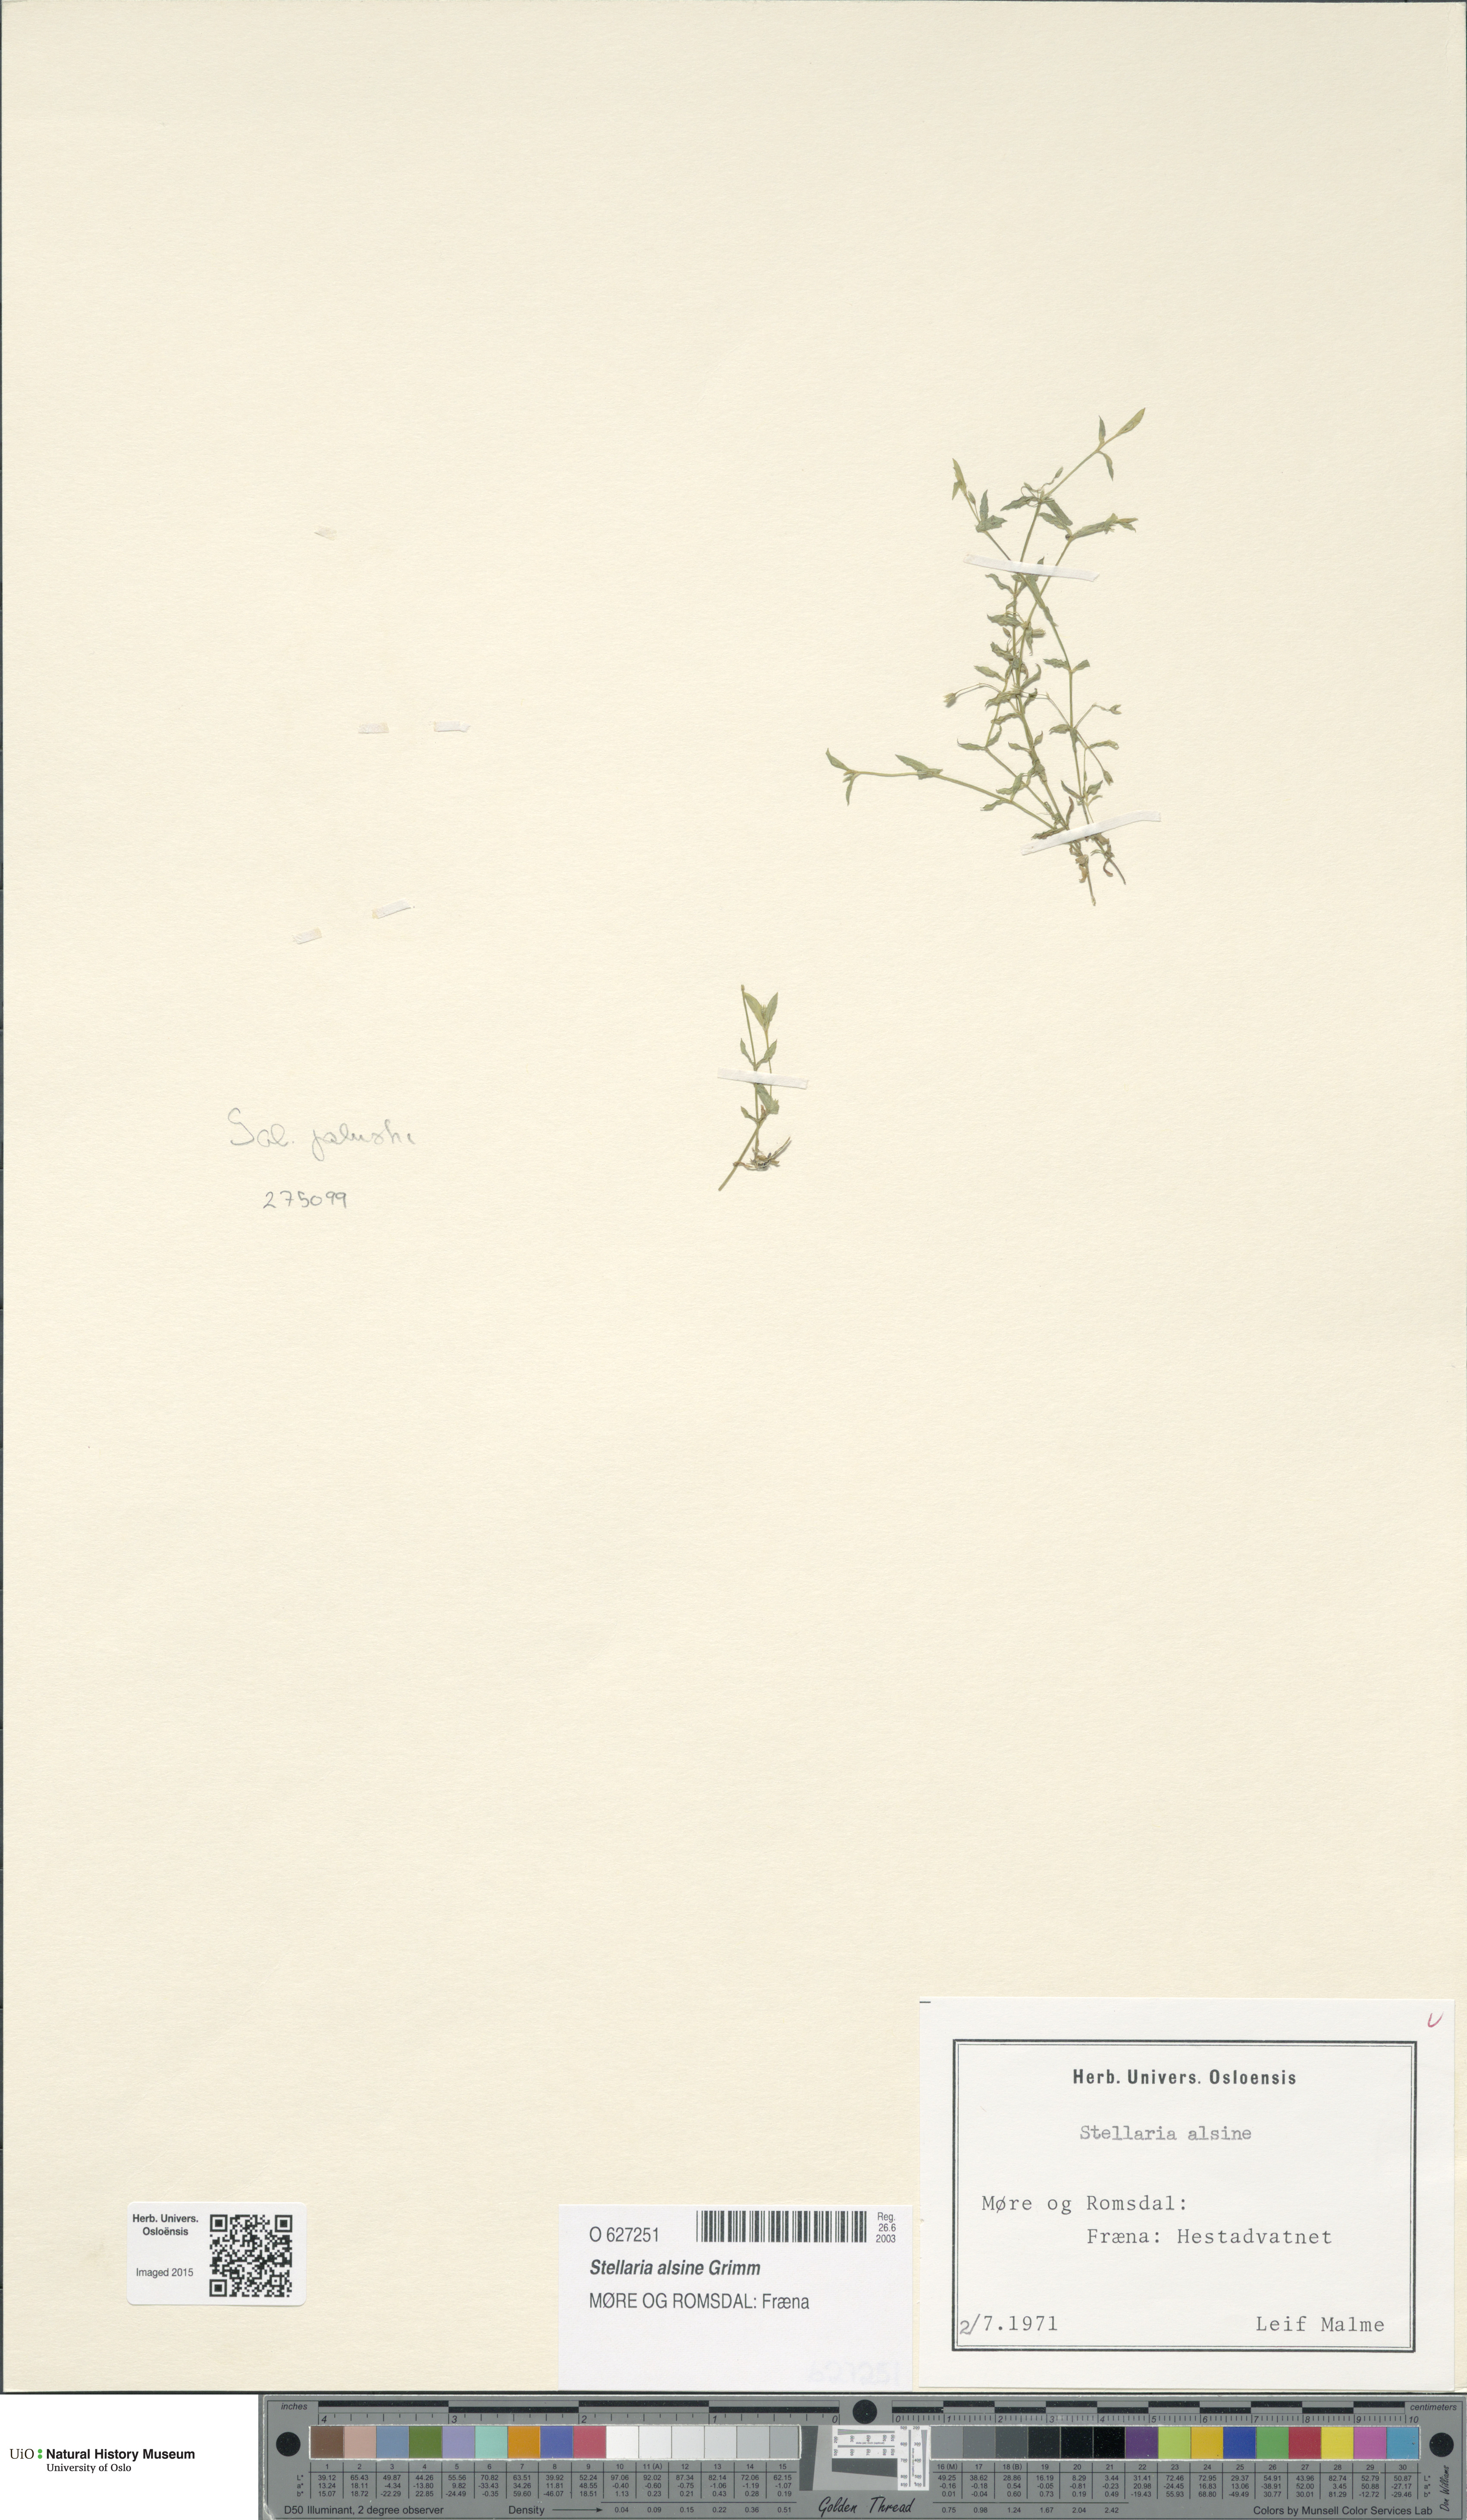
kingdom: Plantae
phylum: Tracheophyta
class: Magnoliopsida
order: Caryophyllales
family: Caryophyllaceae
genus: Stellaria
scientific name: Stellaria alsine
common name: Bog stitchwort
